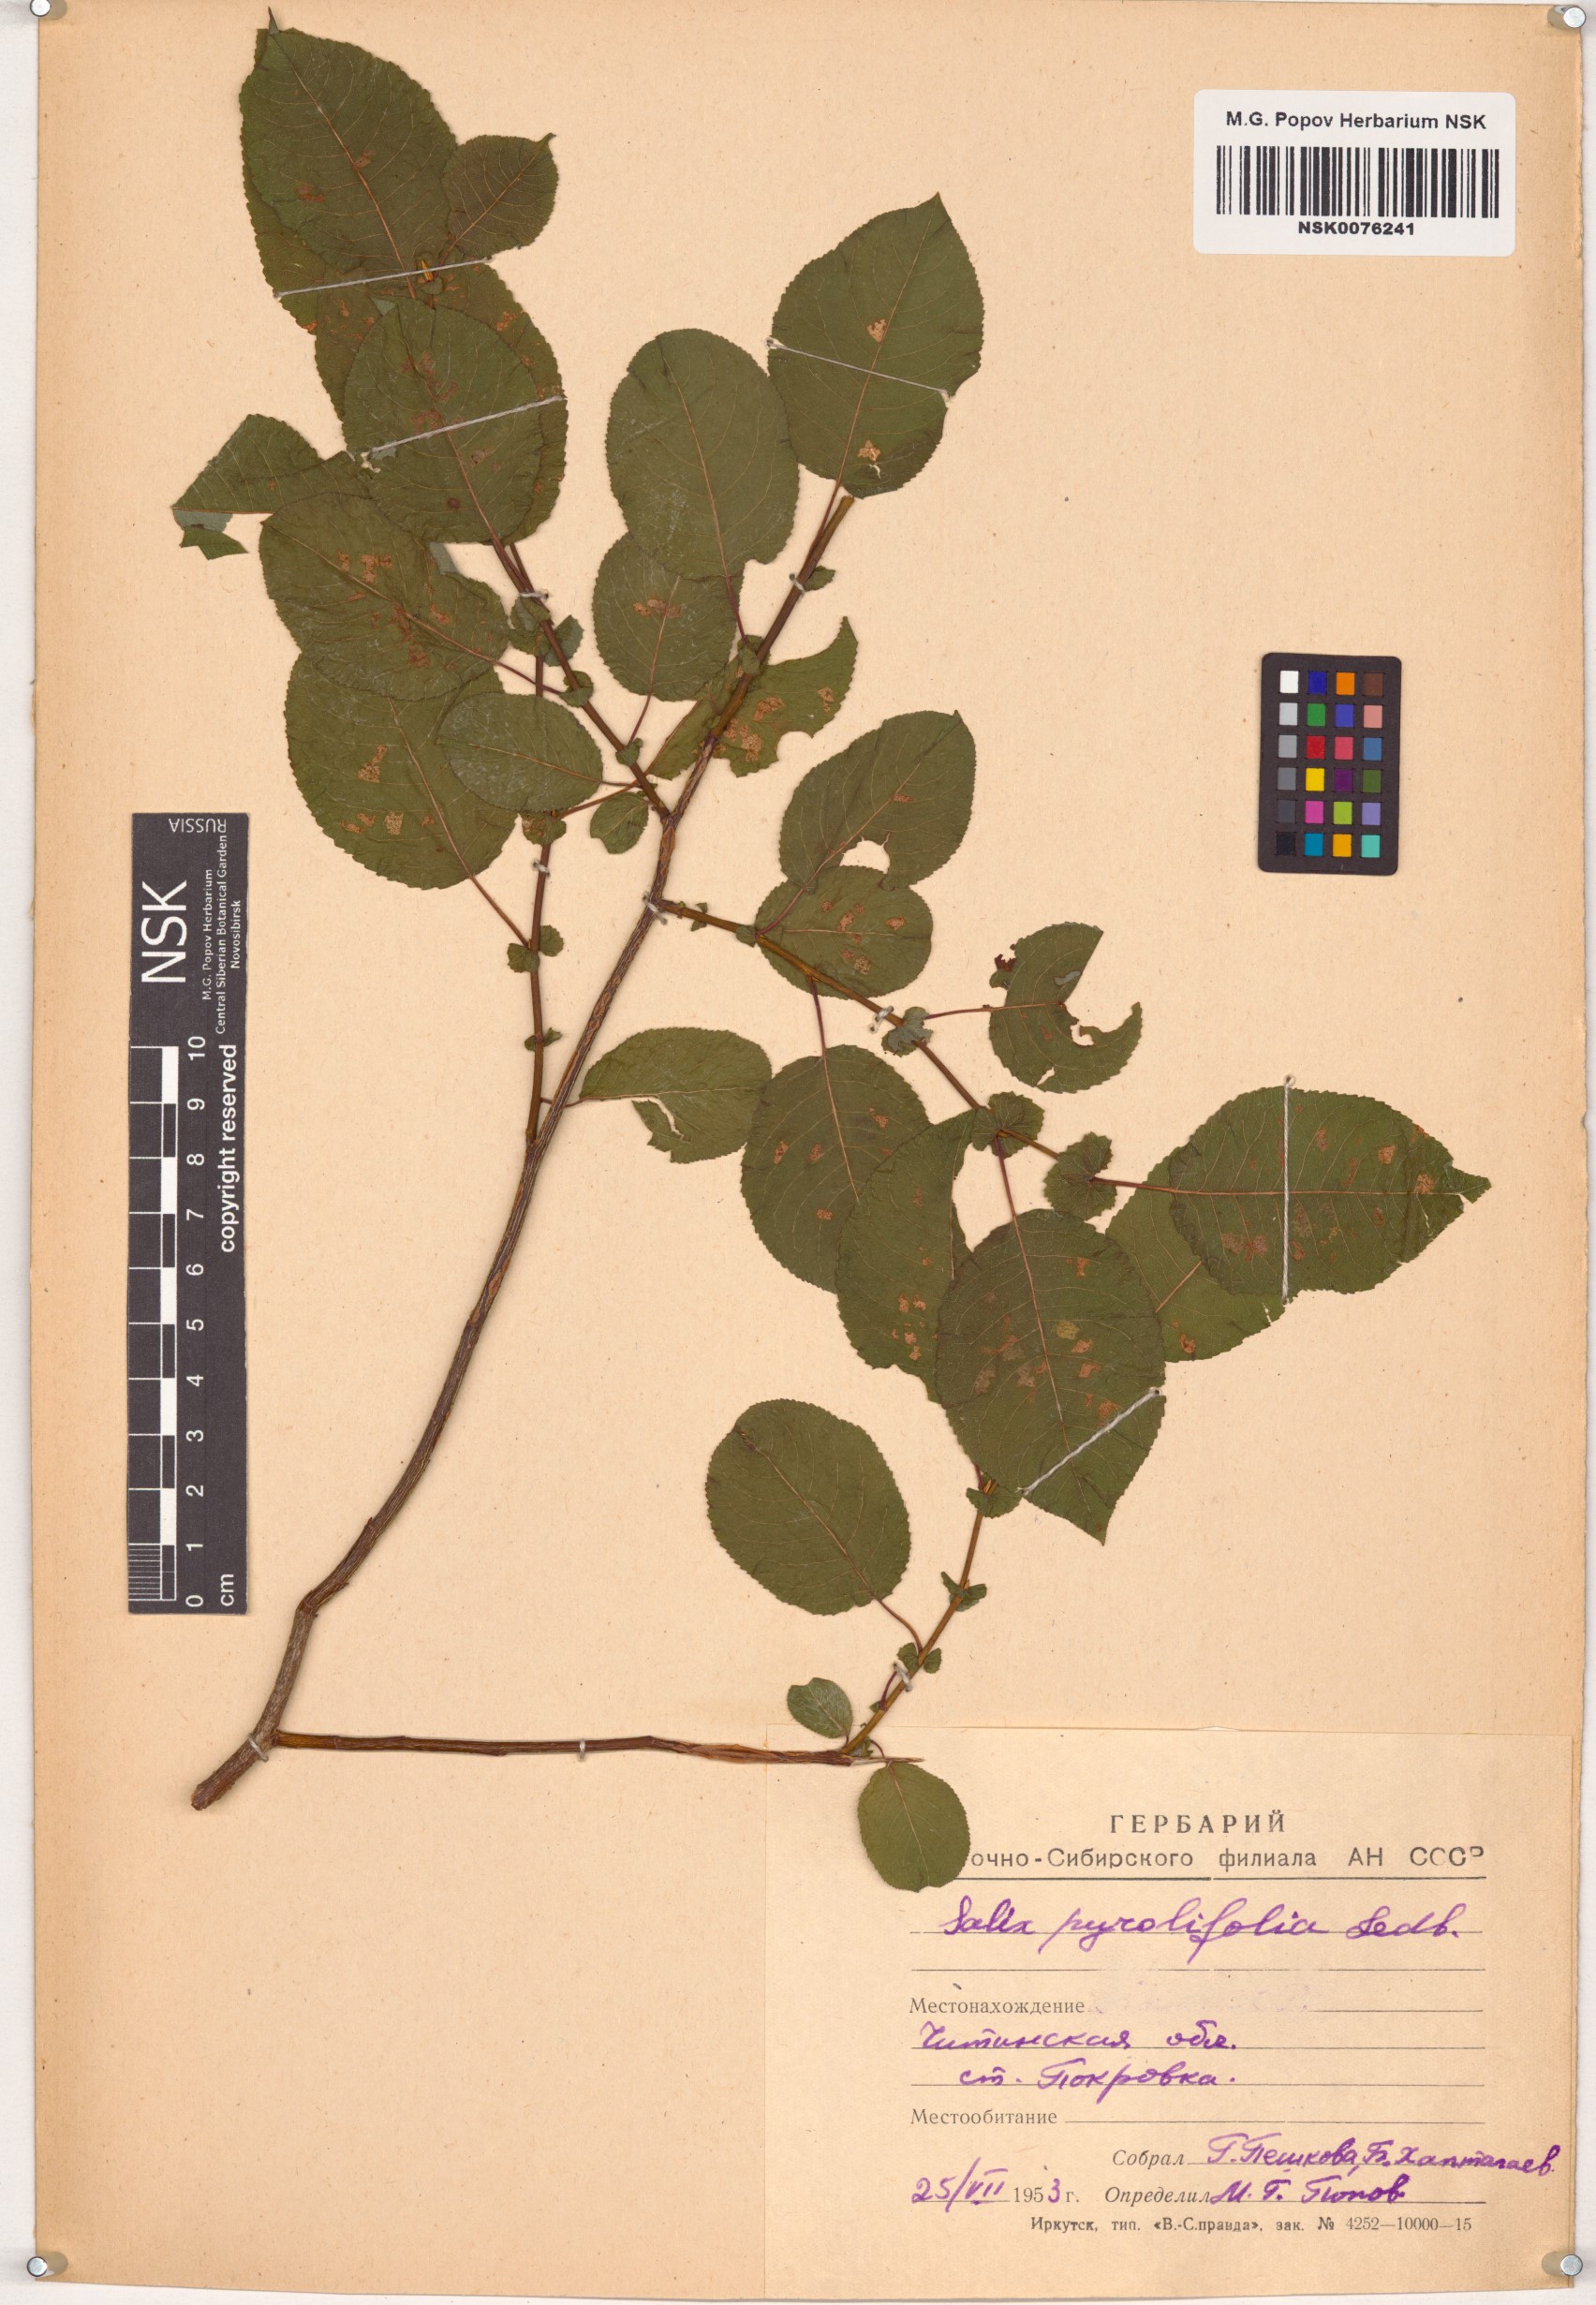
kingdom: Plantae
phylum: Tracheophyta
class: Magnoliopsida
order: Malpighiales
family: Salicaceae
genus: Salix
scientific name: Salix pyrolifolia
